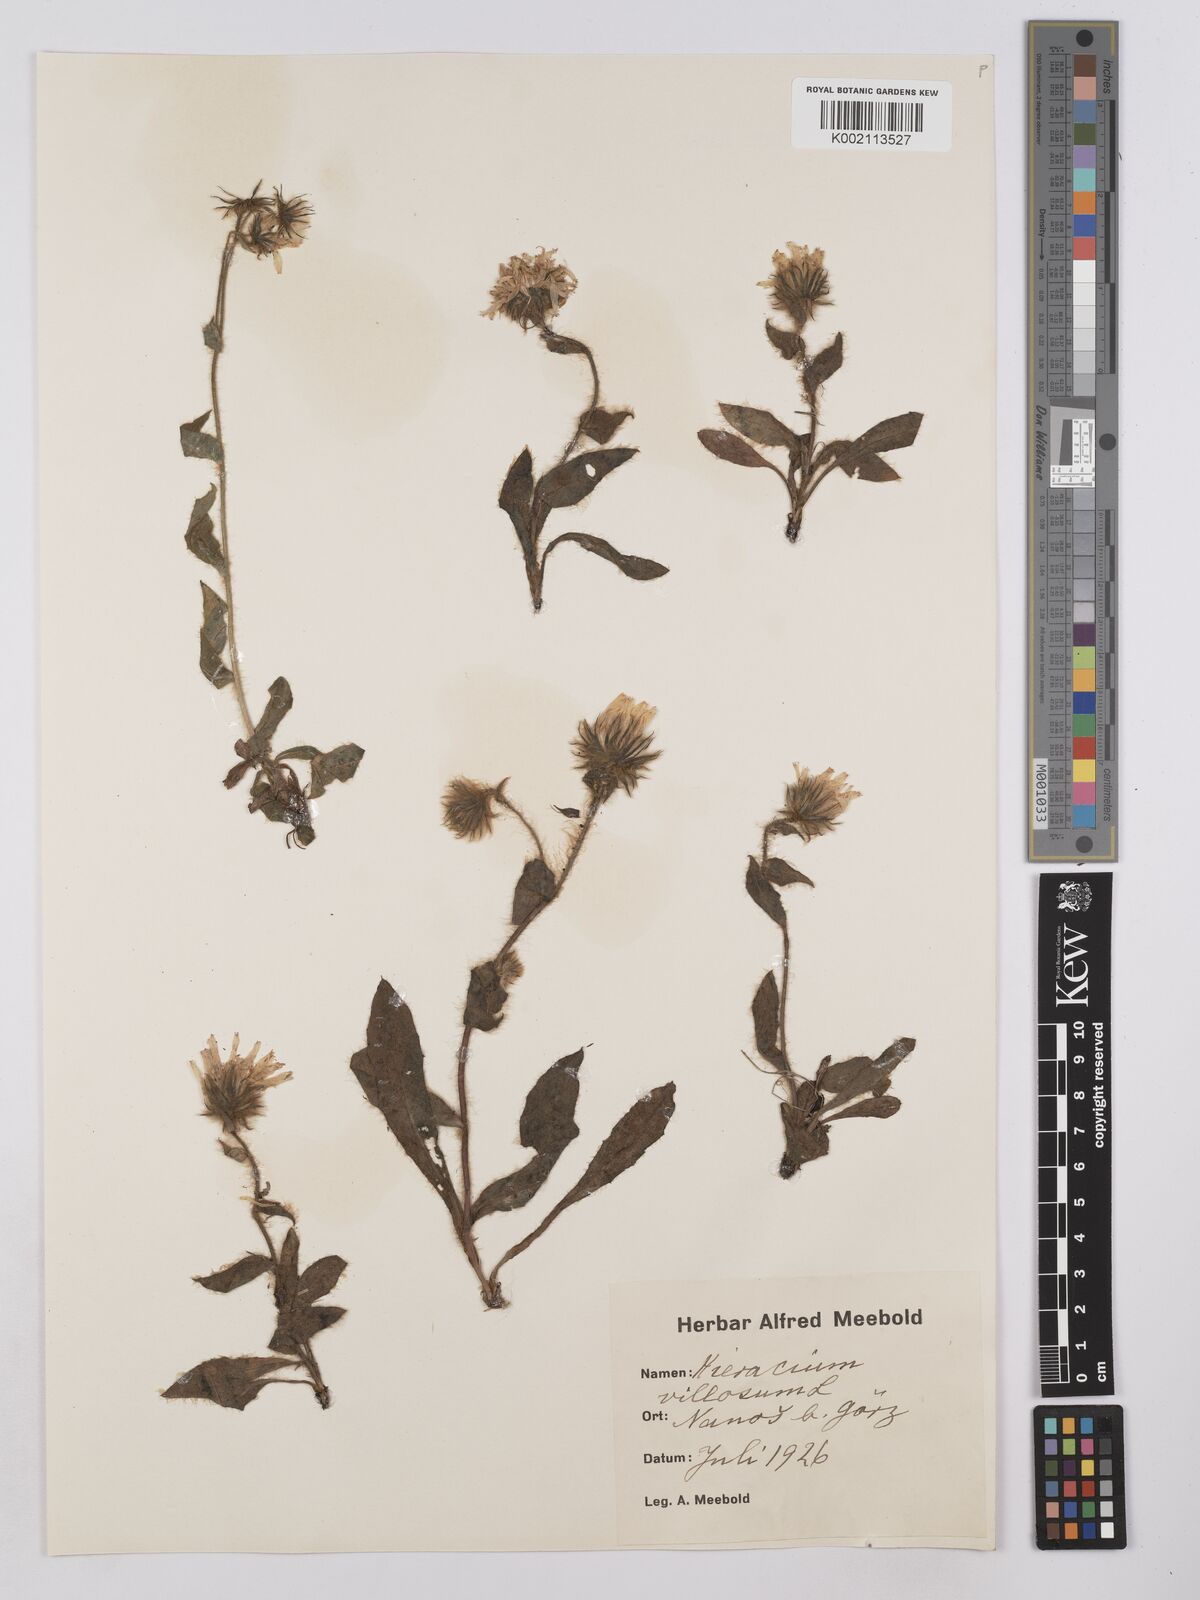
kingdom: Plantae
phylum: Tracheophyta
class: Magnoliopsida
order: Asterales
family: Asteraceae
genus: Hieracium
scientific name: Hieracium
